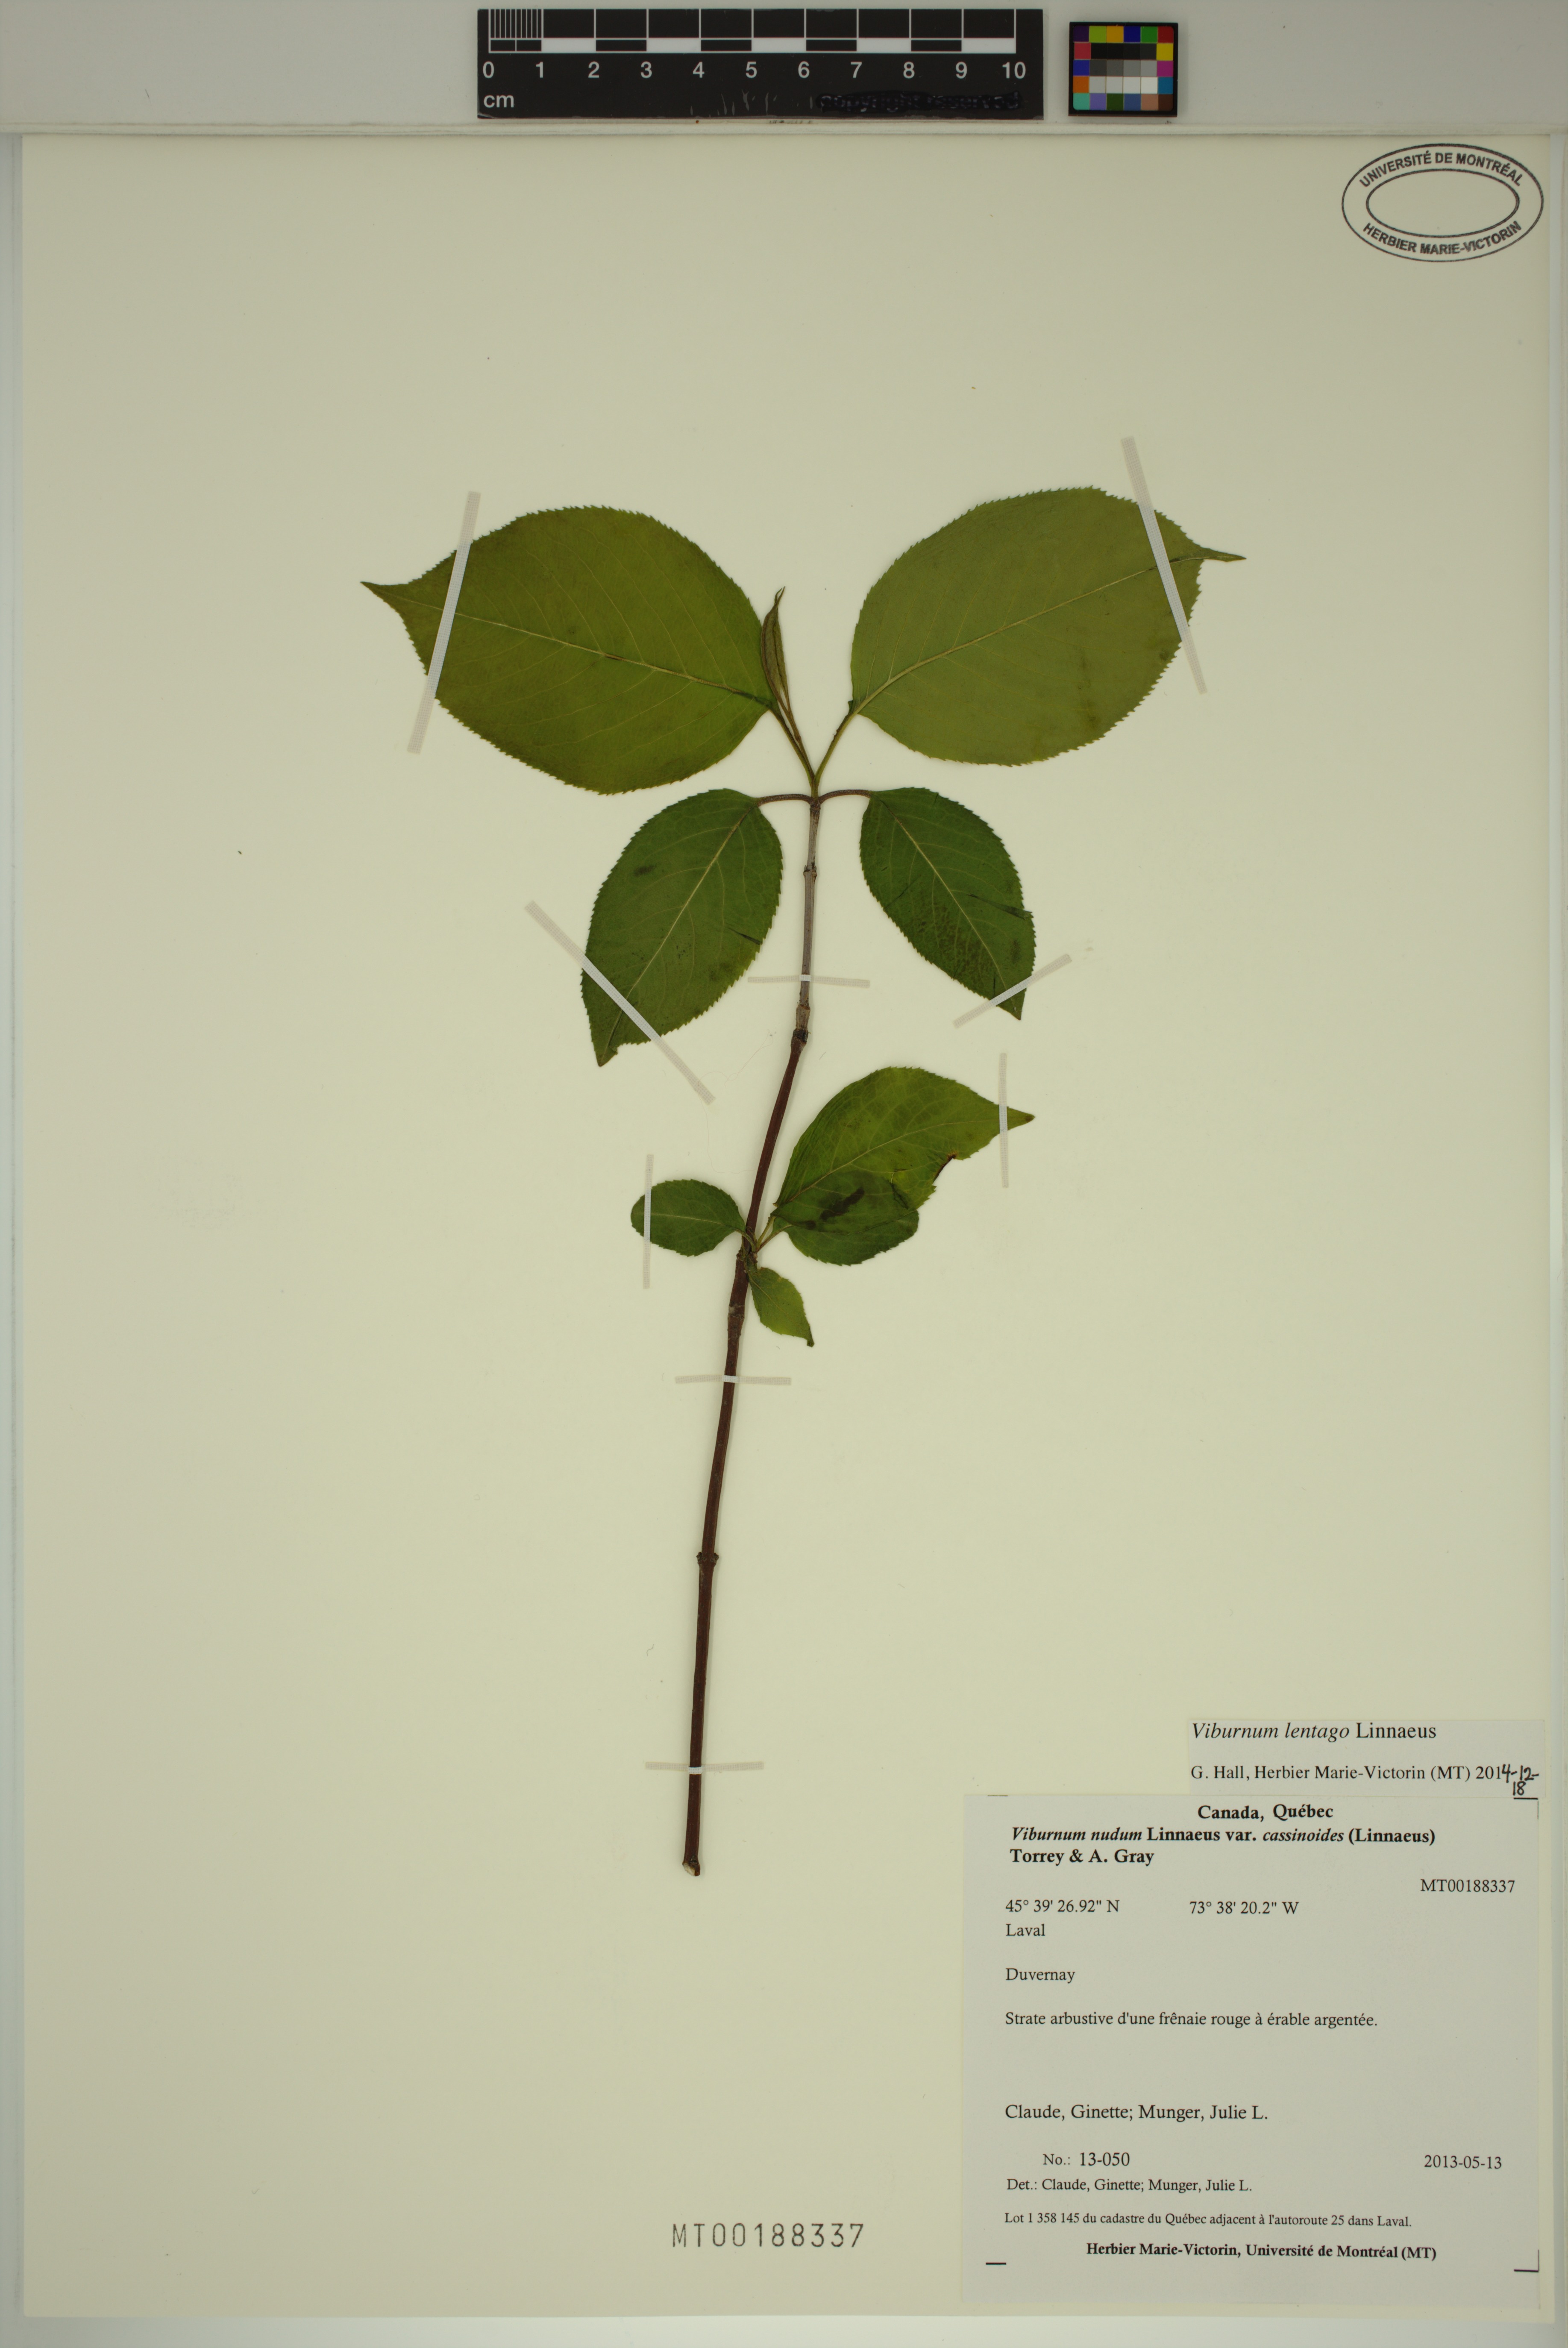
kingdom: Plantae
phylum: Tracheophyta
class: Magnoliopsida
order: Dipsacales
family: Viburnaceae
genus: Viburnum
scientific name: Viburnum lentago
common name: Black haw
